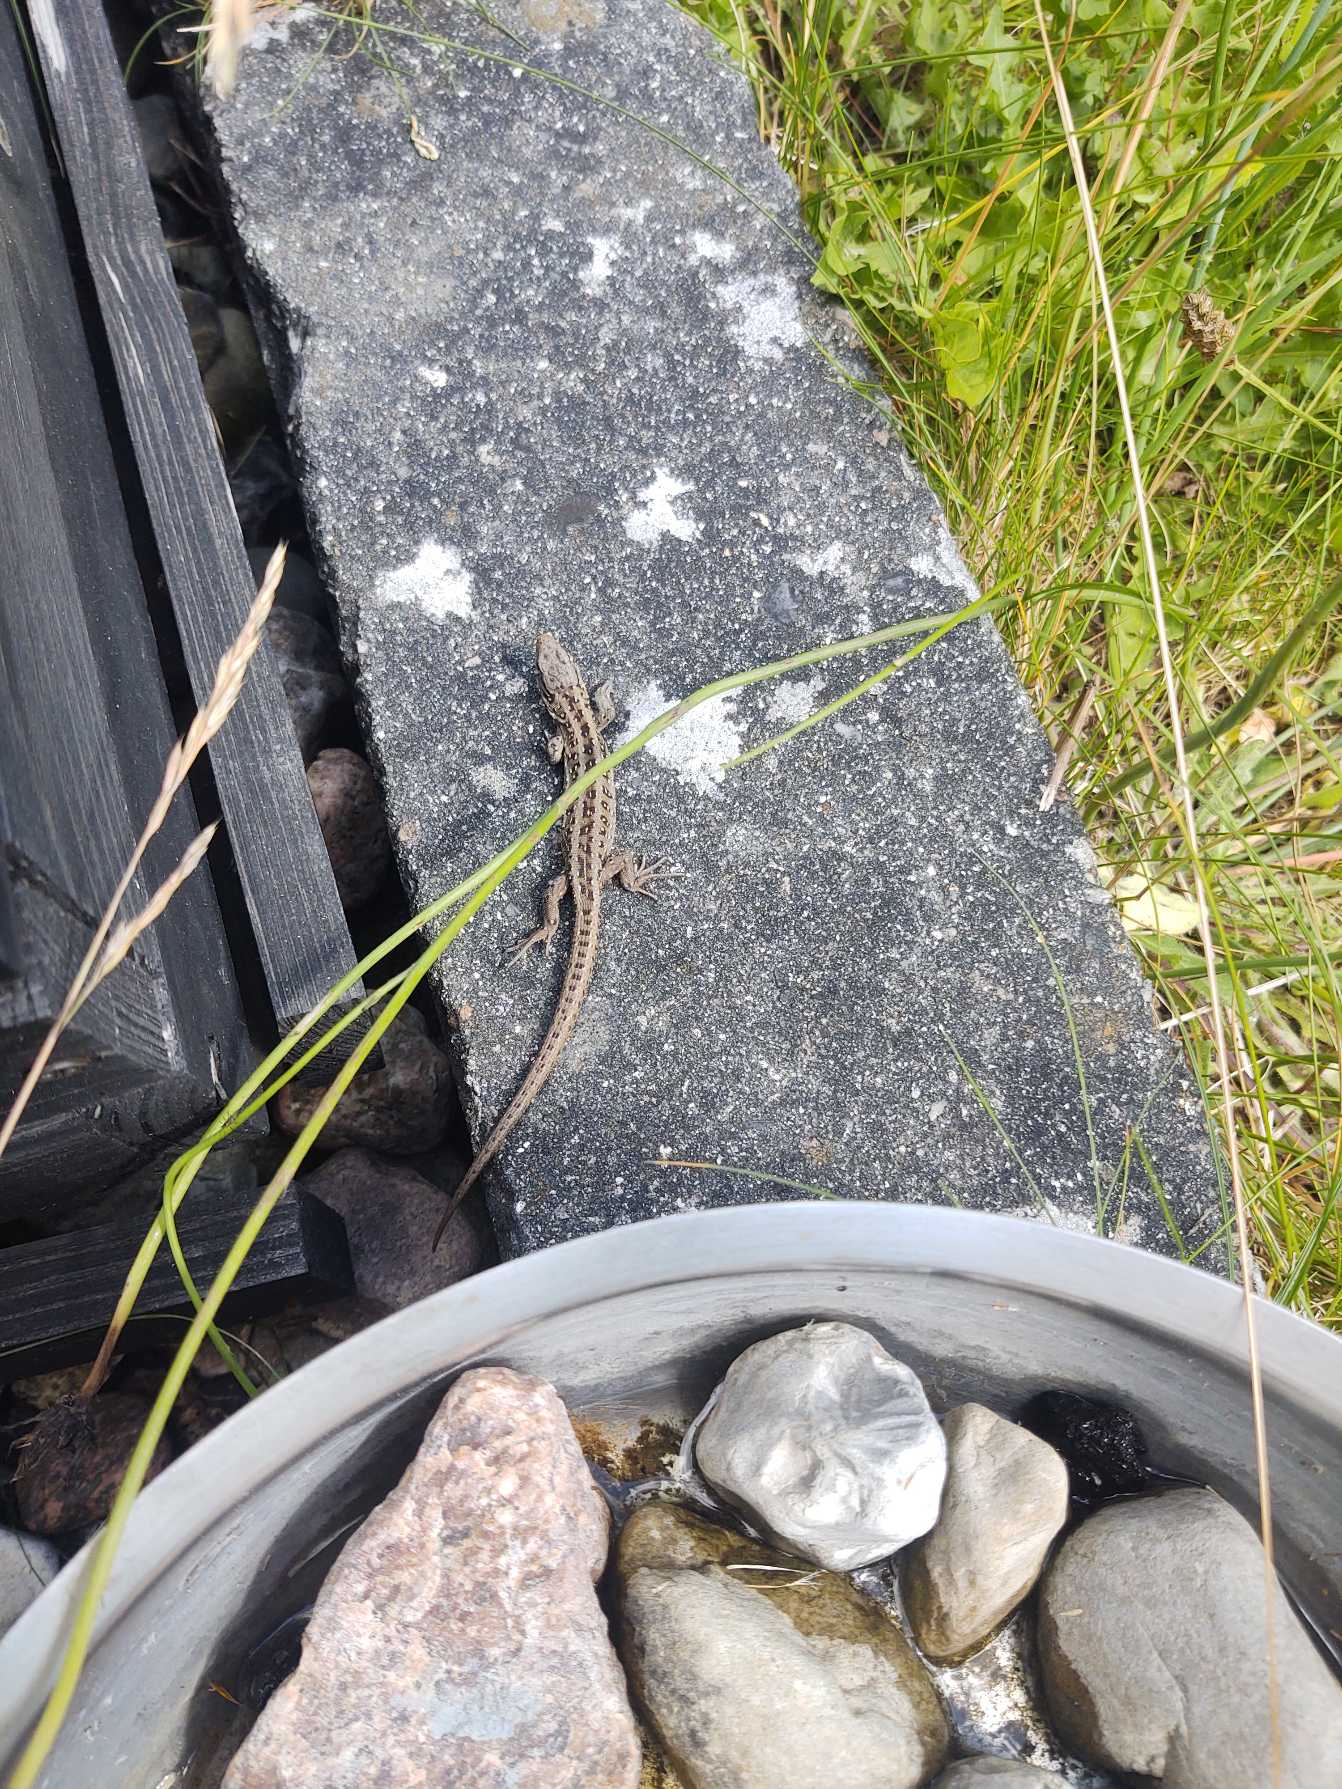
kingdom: Animalia
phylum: Chordata
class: Squamata
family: Lacertidae
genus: Lacerta
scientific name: Lacerta agilis
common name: Markfirben
